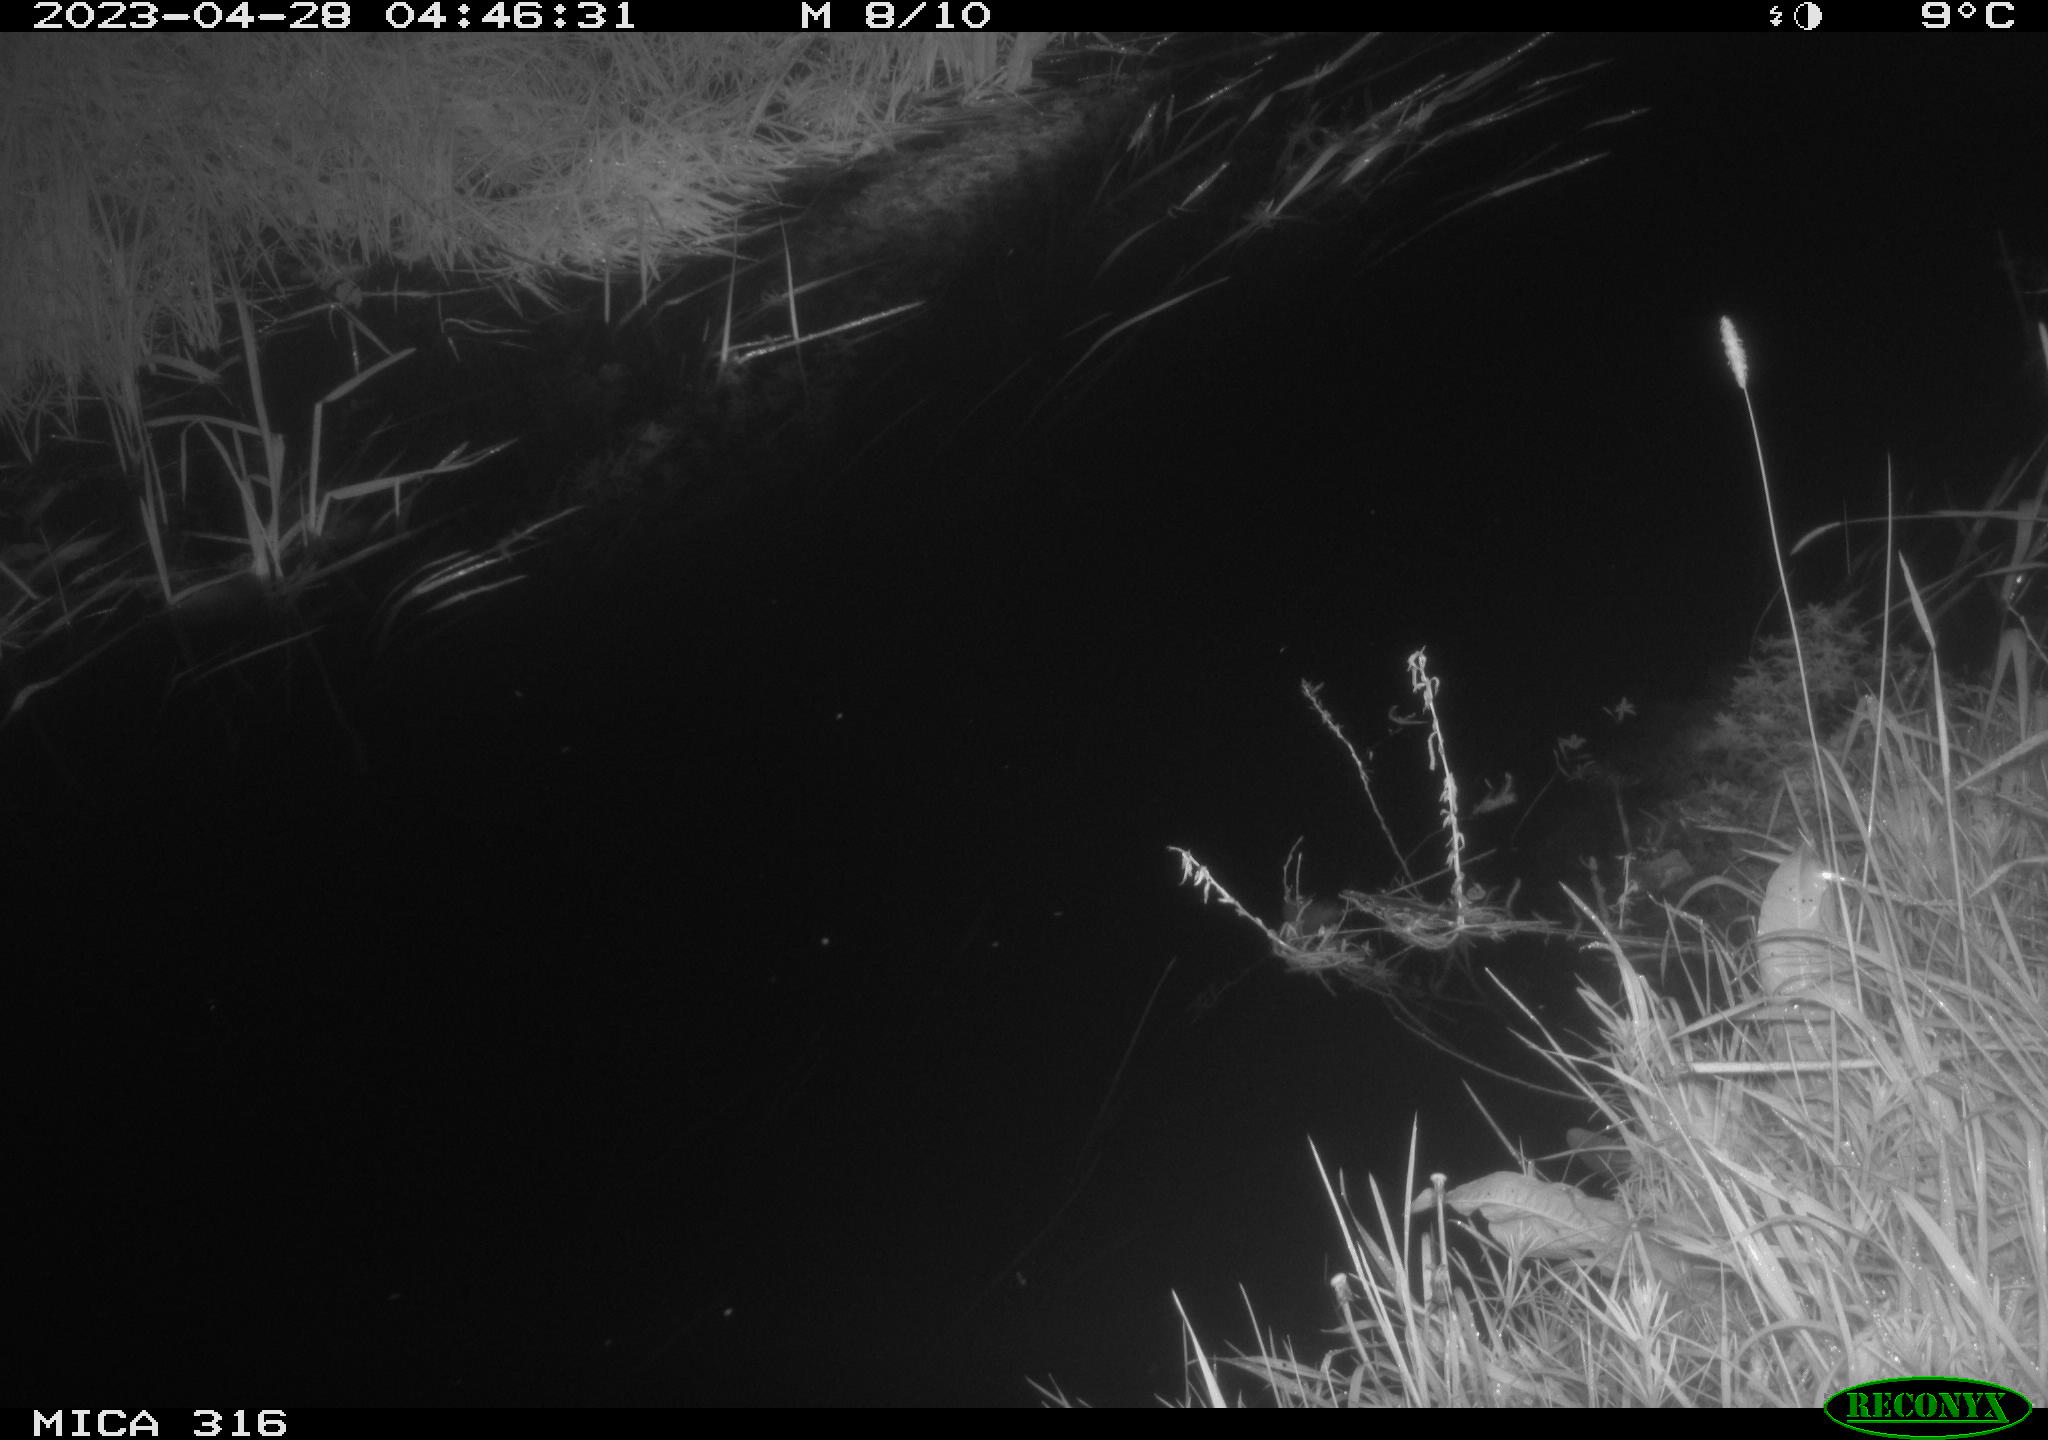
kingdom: Animalia
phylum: Chordata
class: Aves
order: Anseriformes
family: Anatidae
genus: Anas
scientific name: Anas
